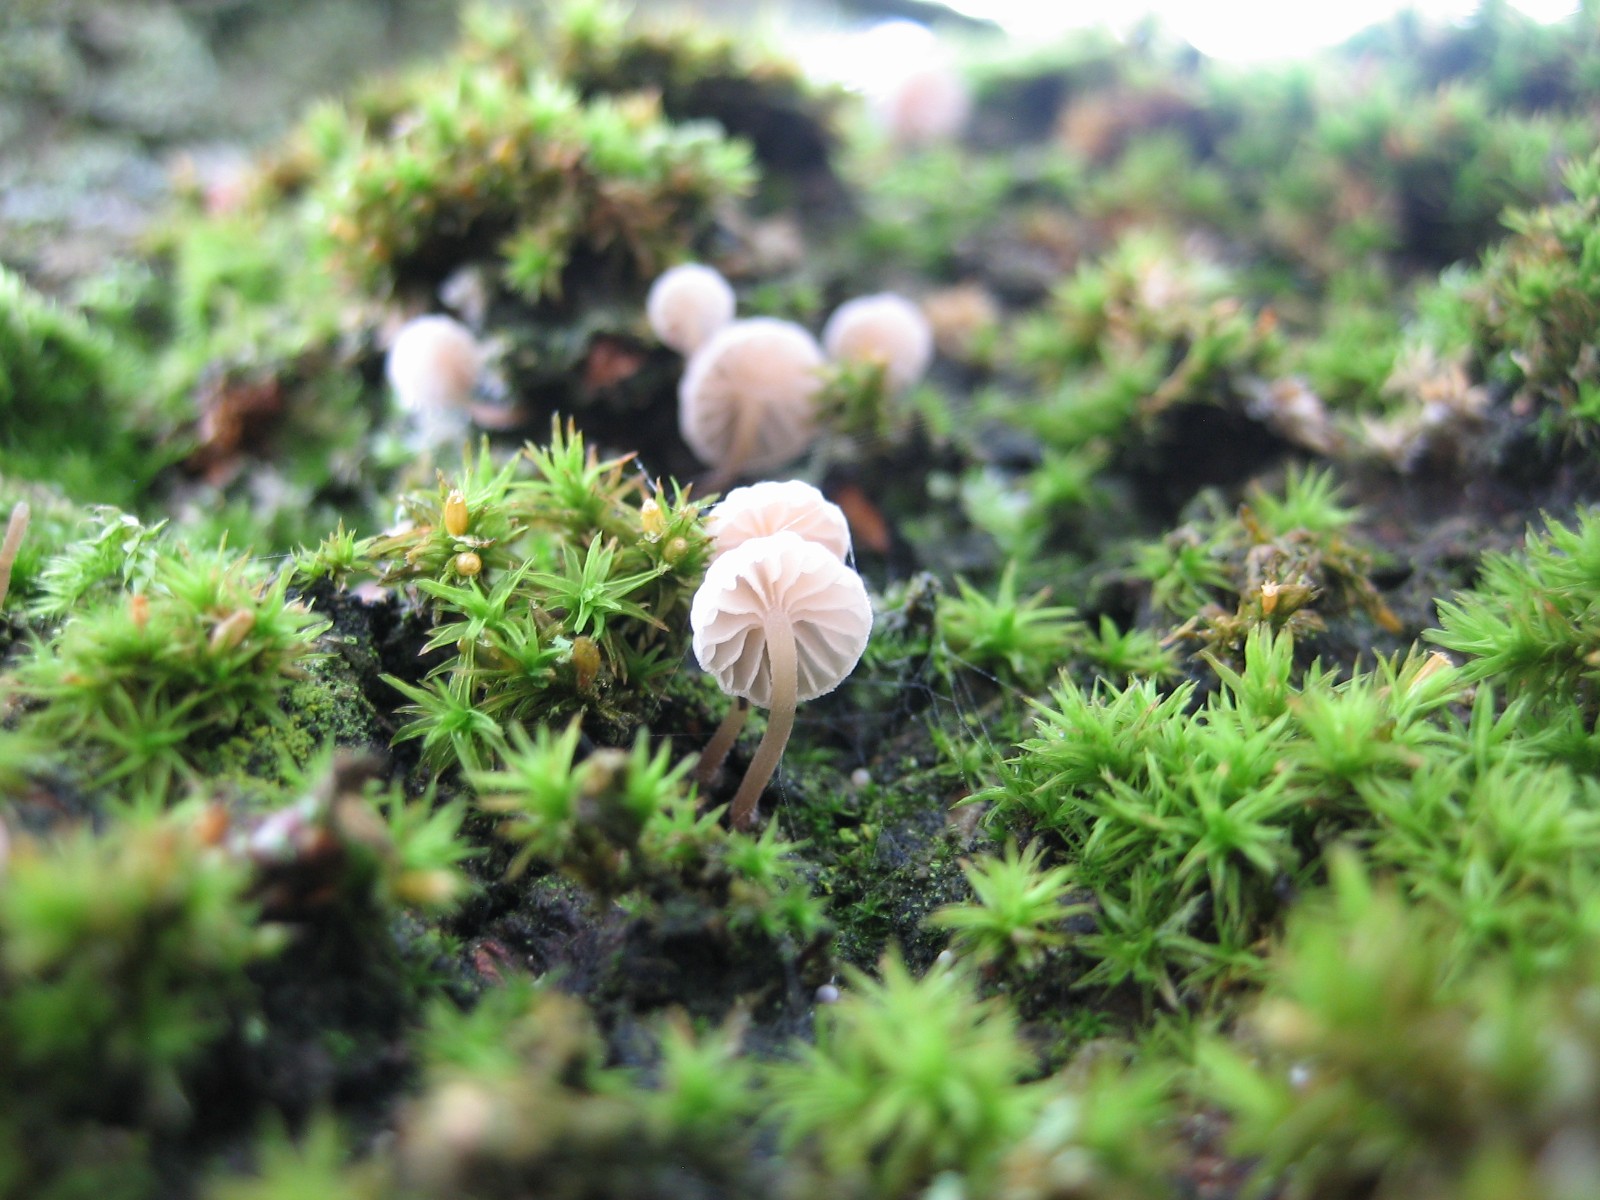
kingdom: Fungi
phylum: Basidiomycota
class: Agaricomycetes
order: Agaricales
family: Mycenaceae
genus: Mycena
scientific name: Mycena
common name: huesvamp
